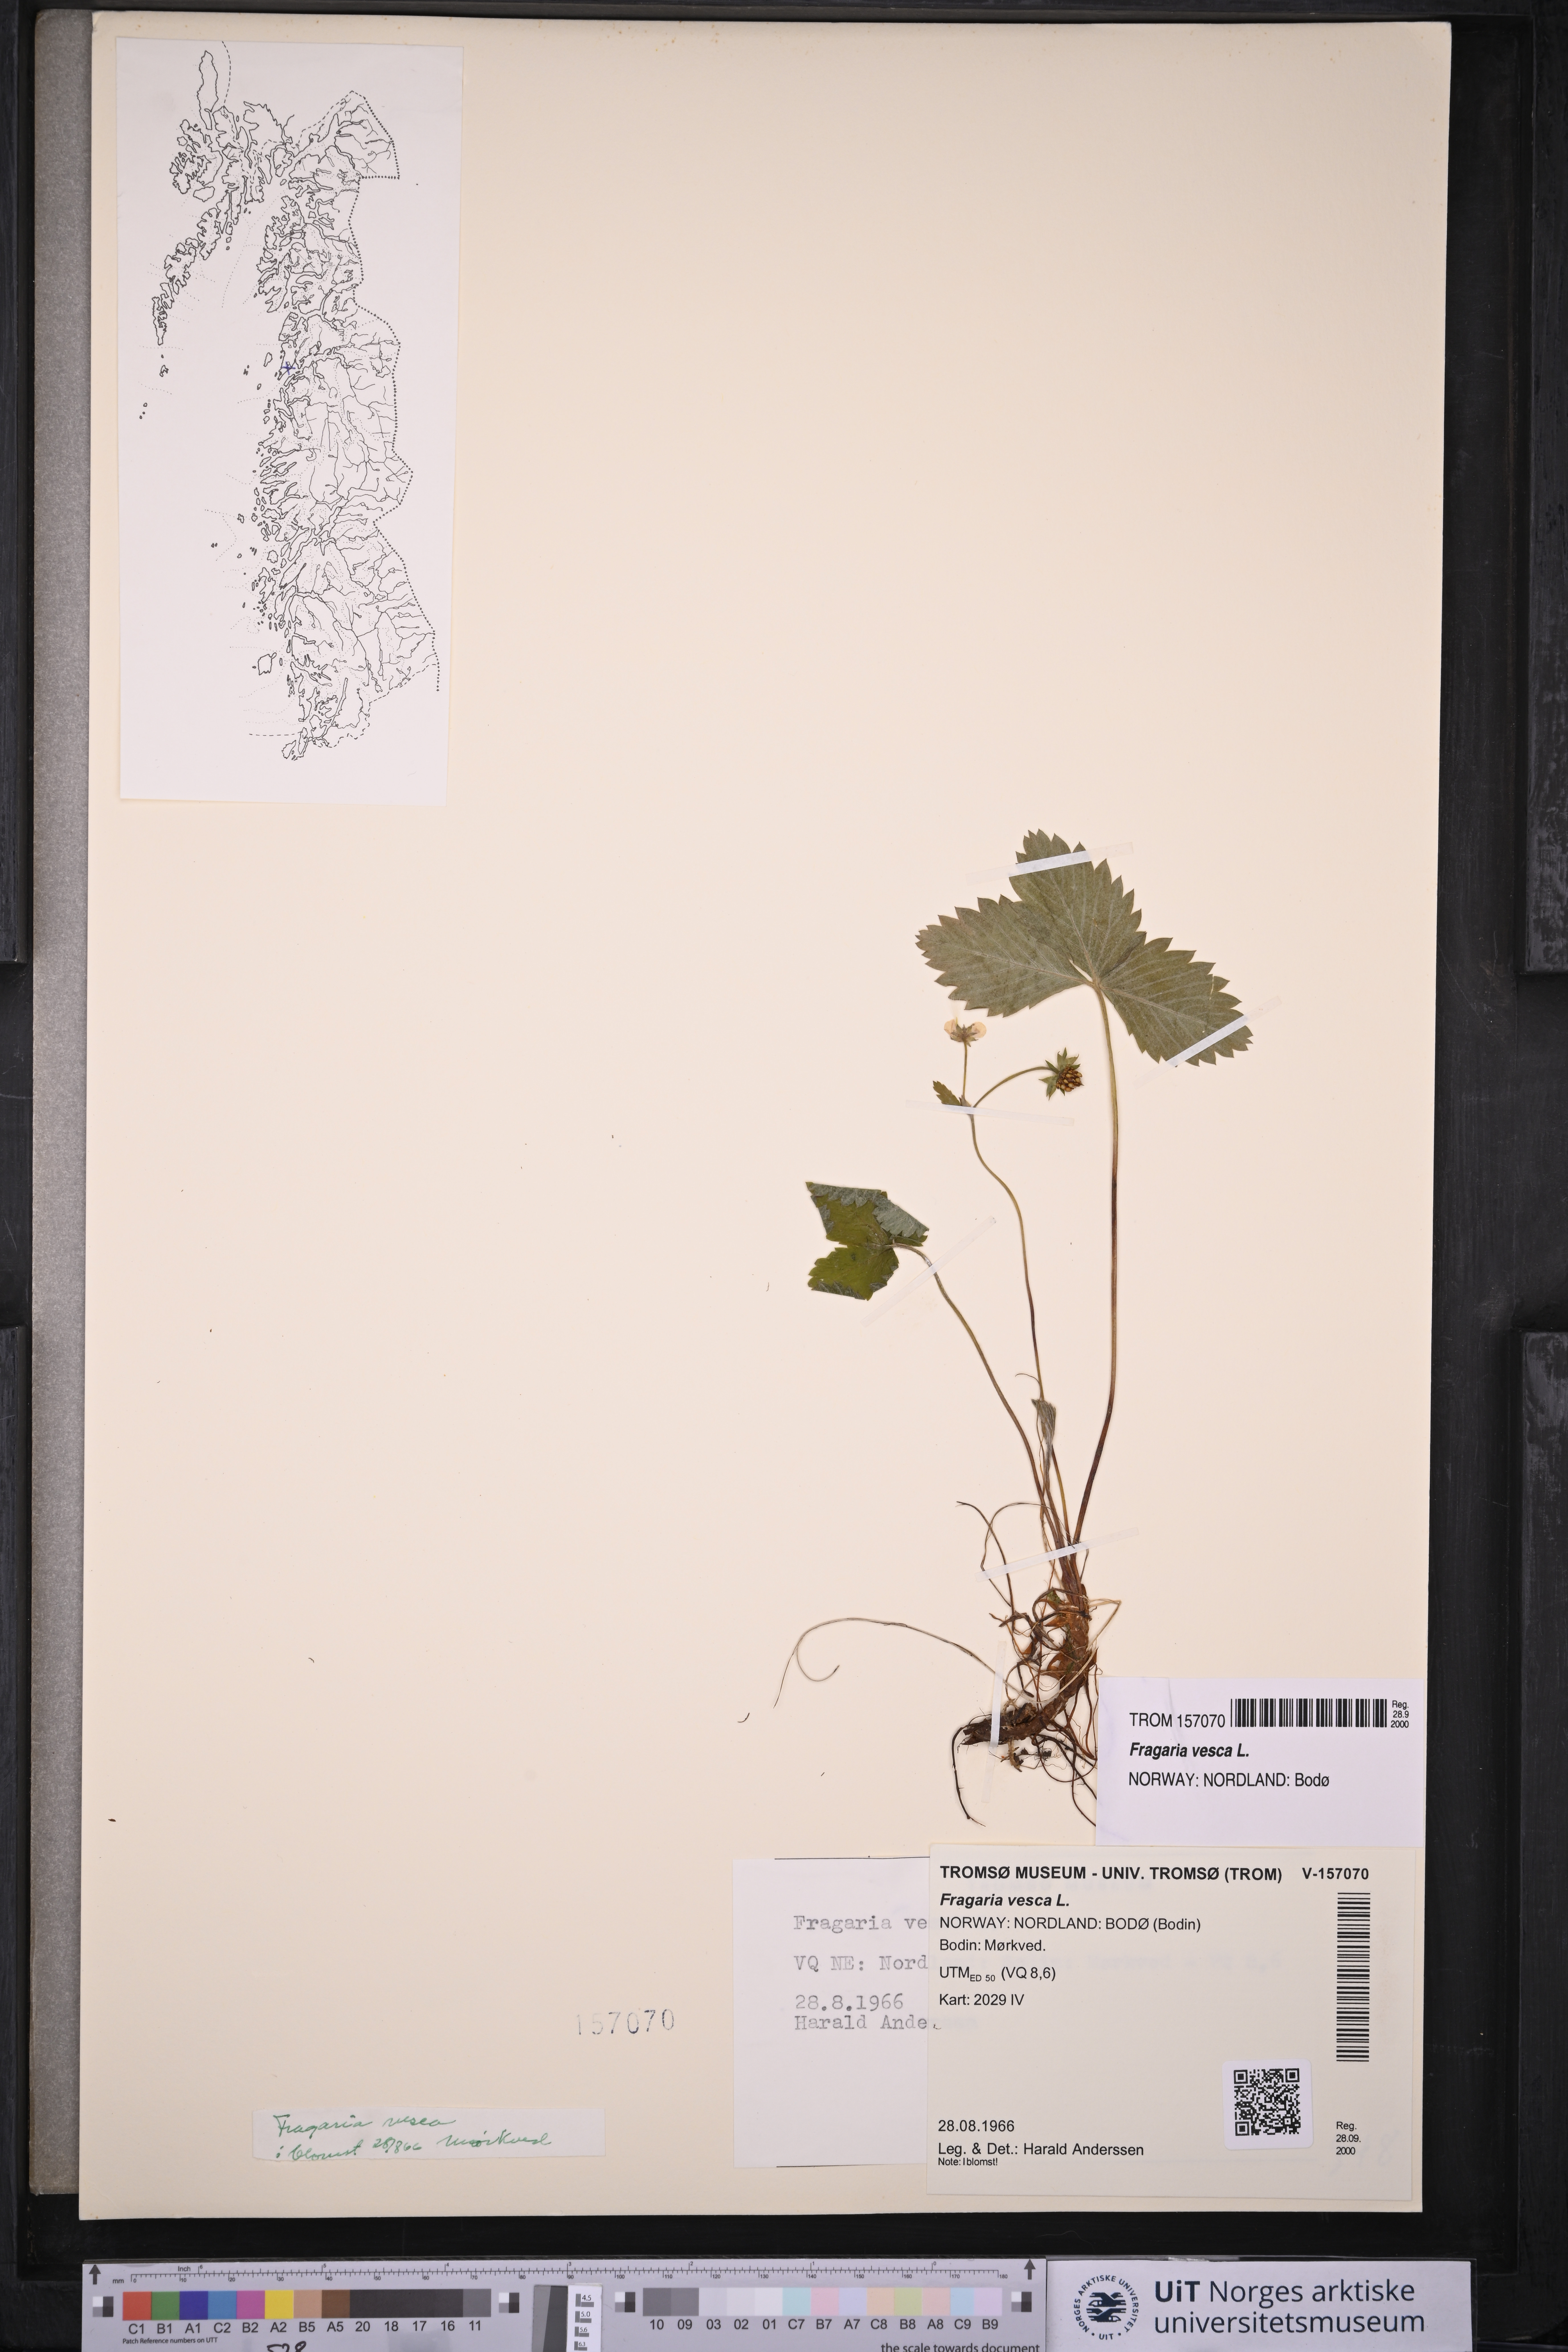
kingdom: Plantae
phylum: Tracheophyta
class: Magnoliopsida
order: Rosales
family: Rosaceae
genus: Fragaria
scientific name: Fragaria vesca
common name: Wild strawberry
